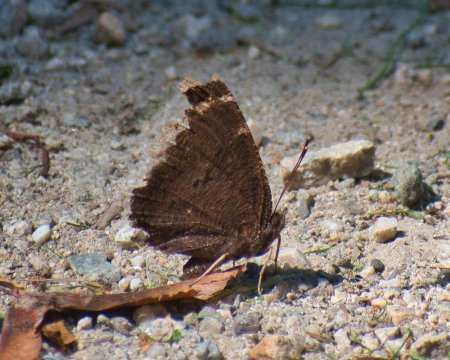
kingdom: Animalia
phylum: Arthropoda
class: Insecta
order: Lepidoptera
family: Nymphalidae
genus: Nymphalis
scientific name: Nymphalis antiopa
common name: Mourning Cloak
